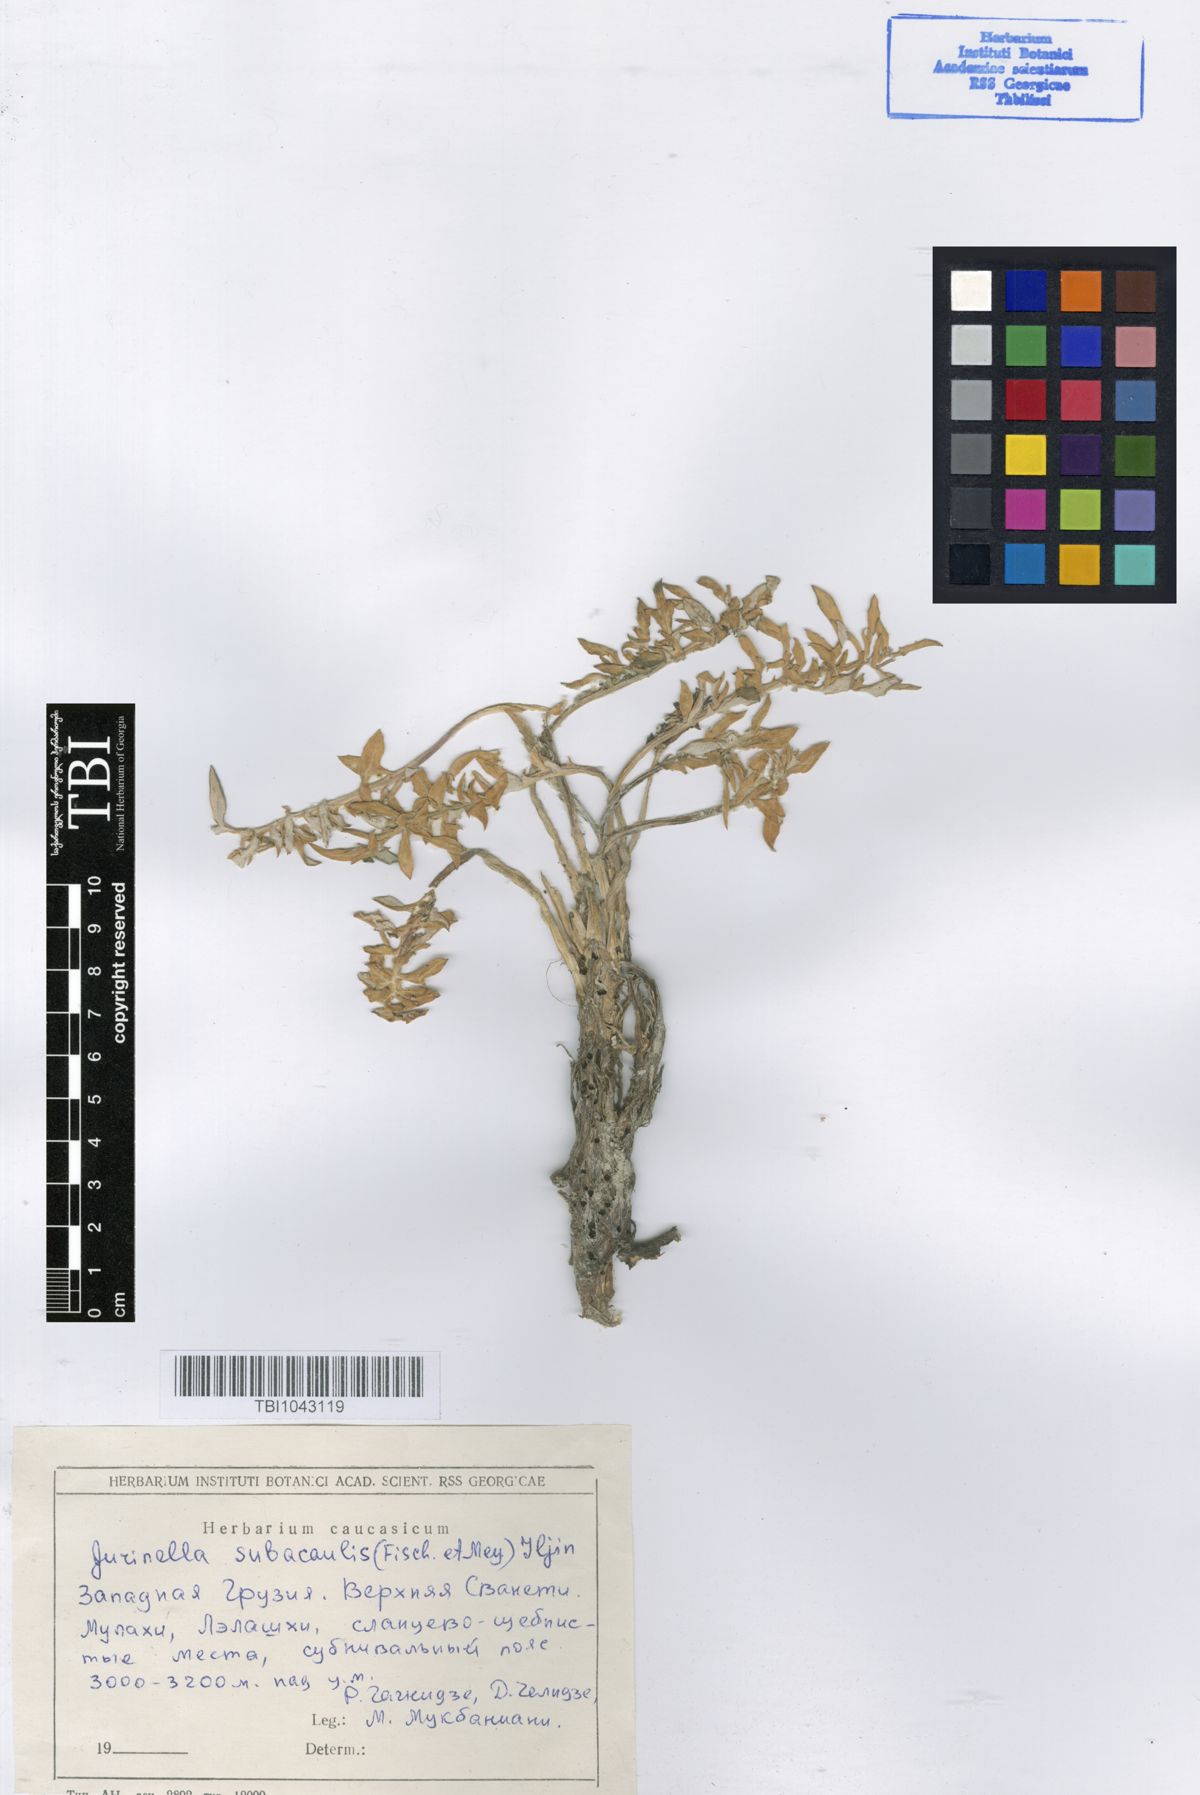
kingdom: Plantae
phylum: Tracheophyta
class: Magnoliopsida
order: Asterales
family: Asteraceae
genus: Jurinea
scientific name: Jurinea moschus
